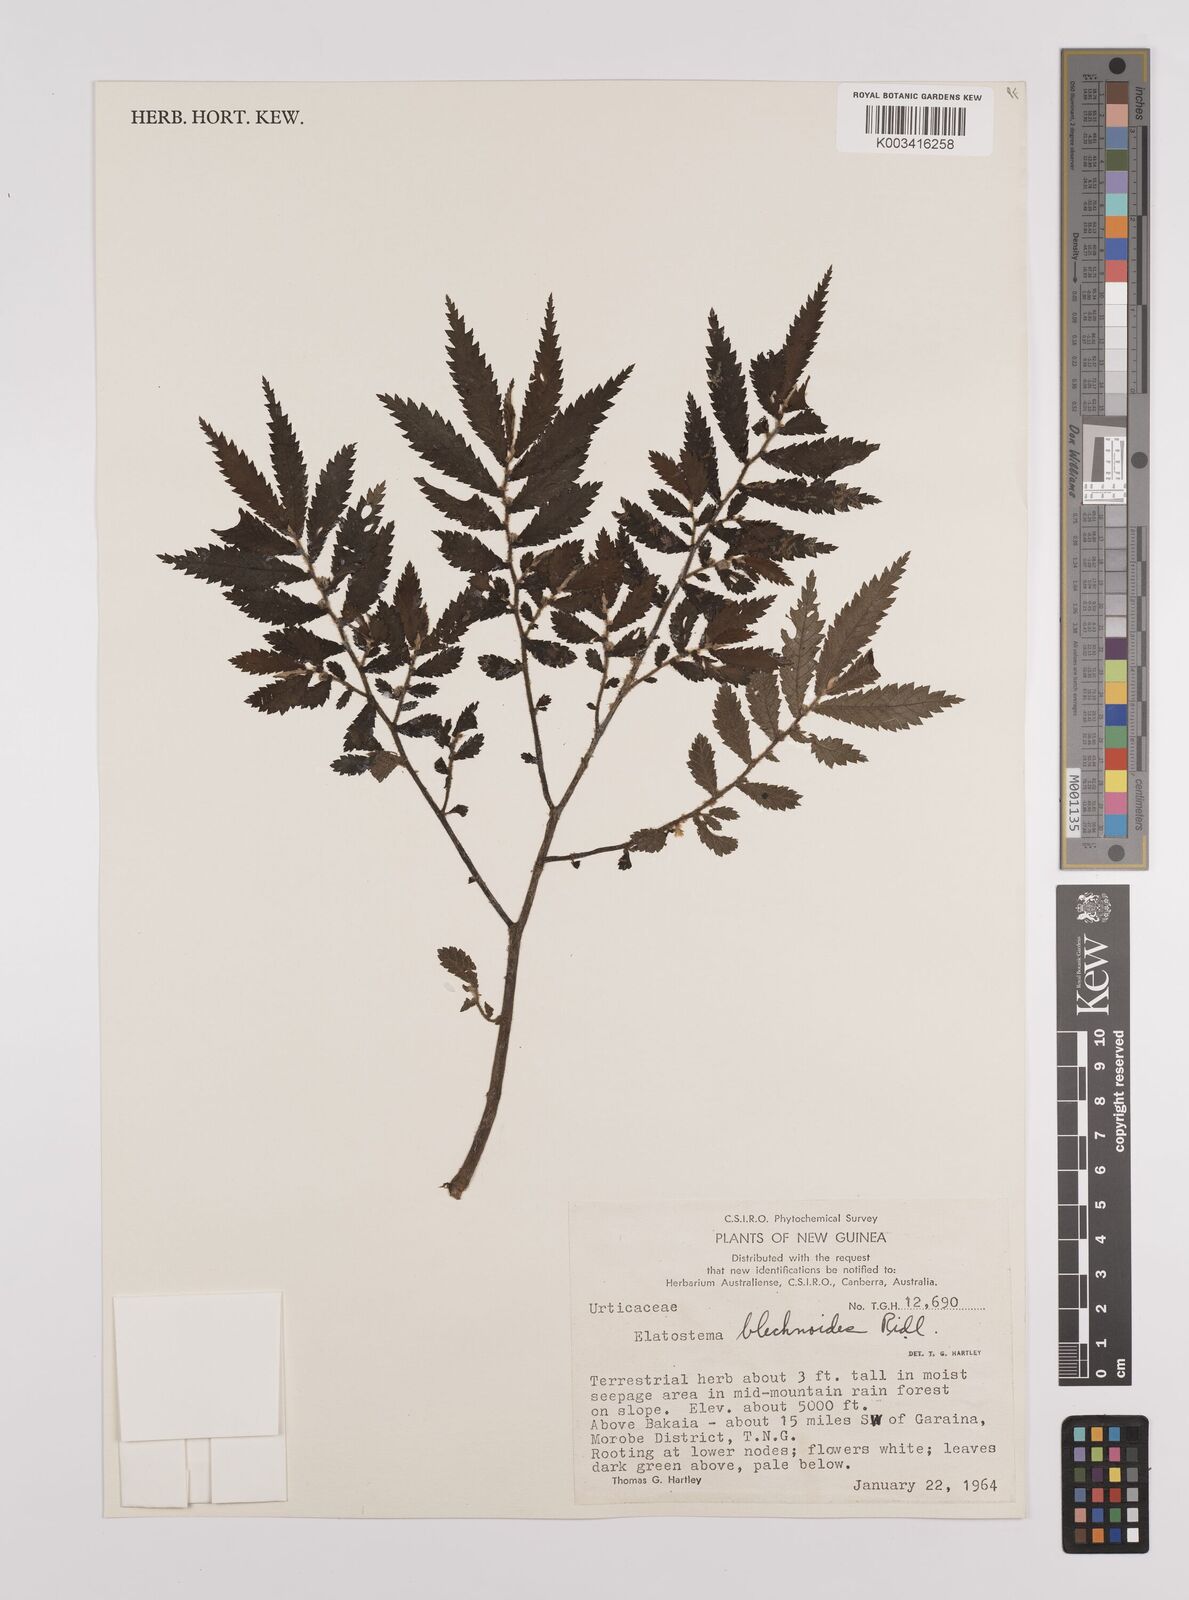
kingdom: Plantae
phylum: Tracheophyta
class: Magnoliopsida
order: Rosales
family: Urticaceae
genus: Elatostema
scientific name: Elatostema blechnoides
